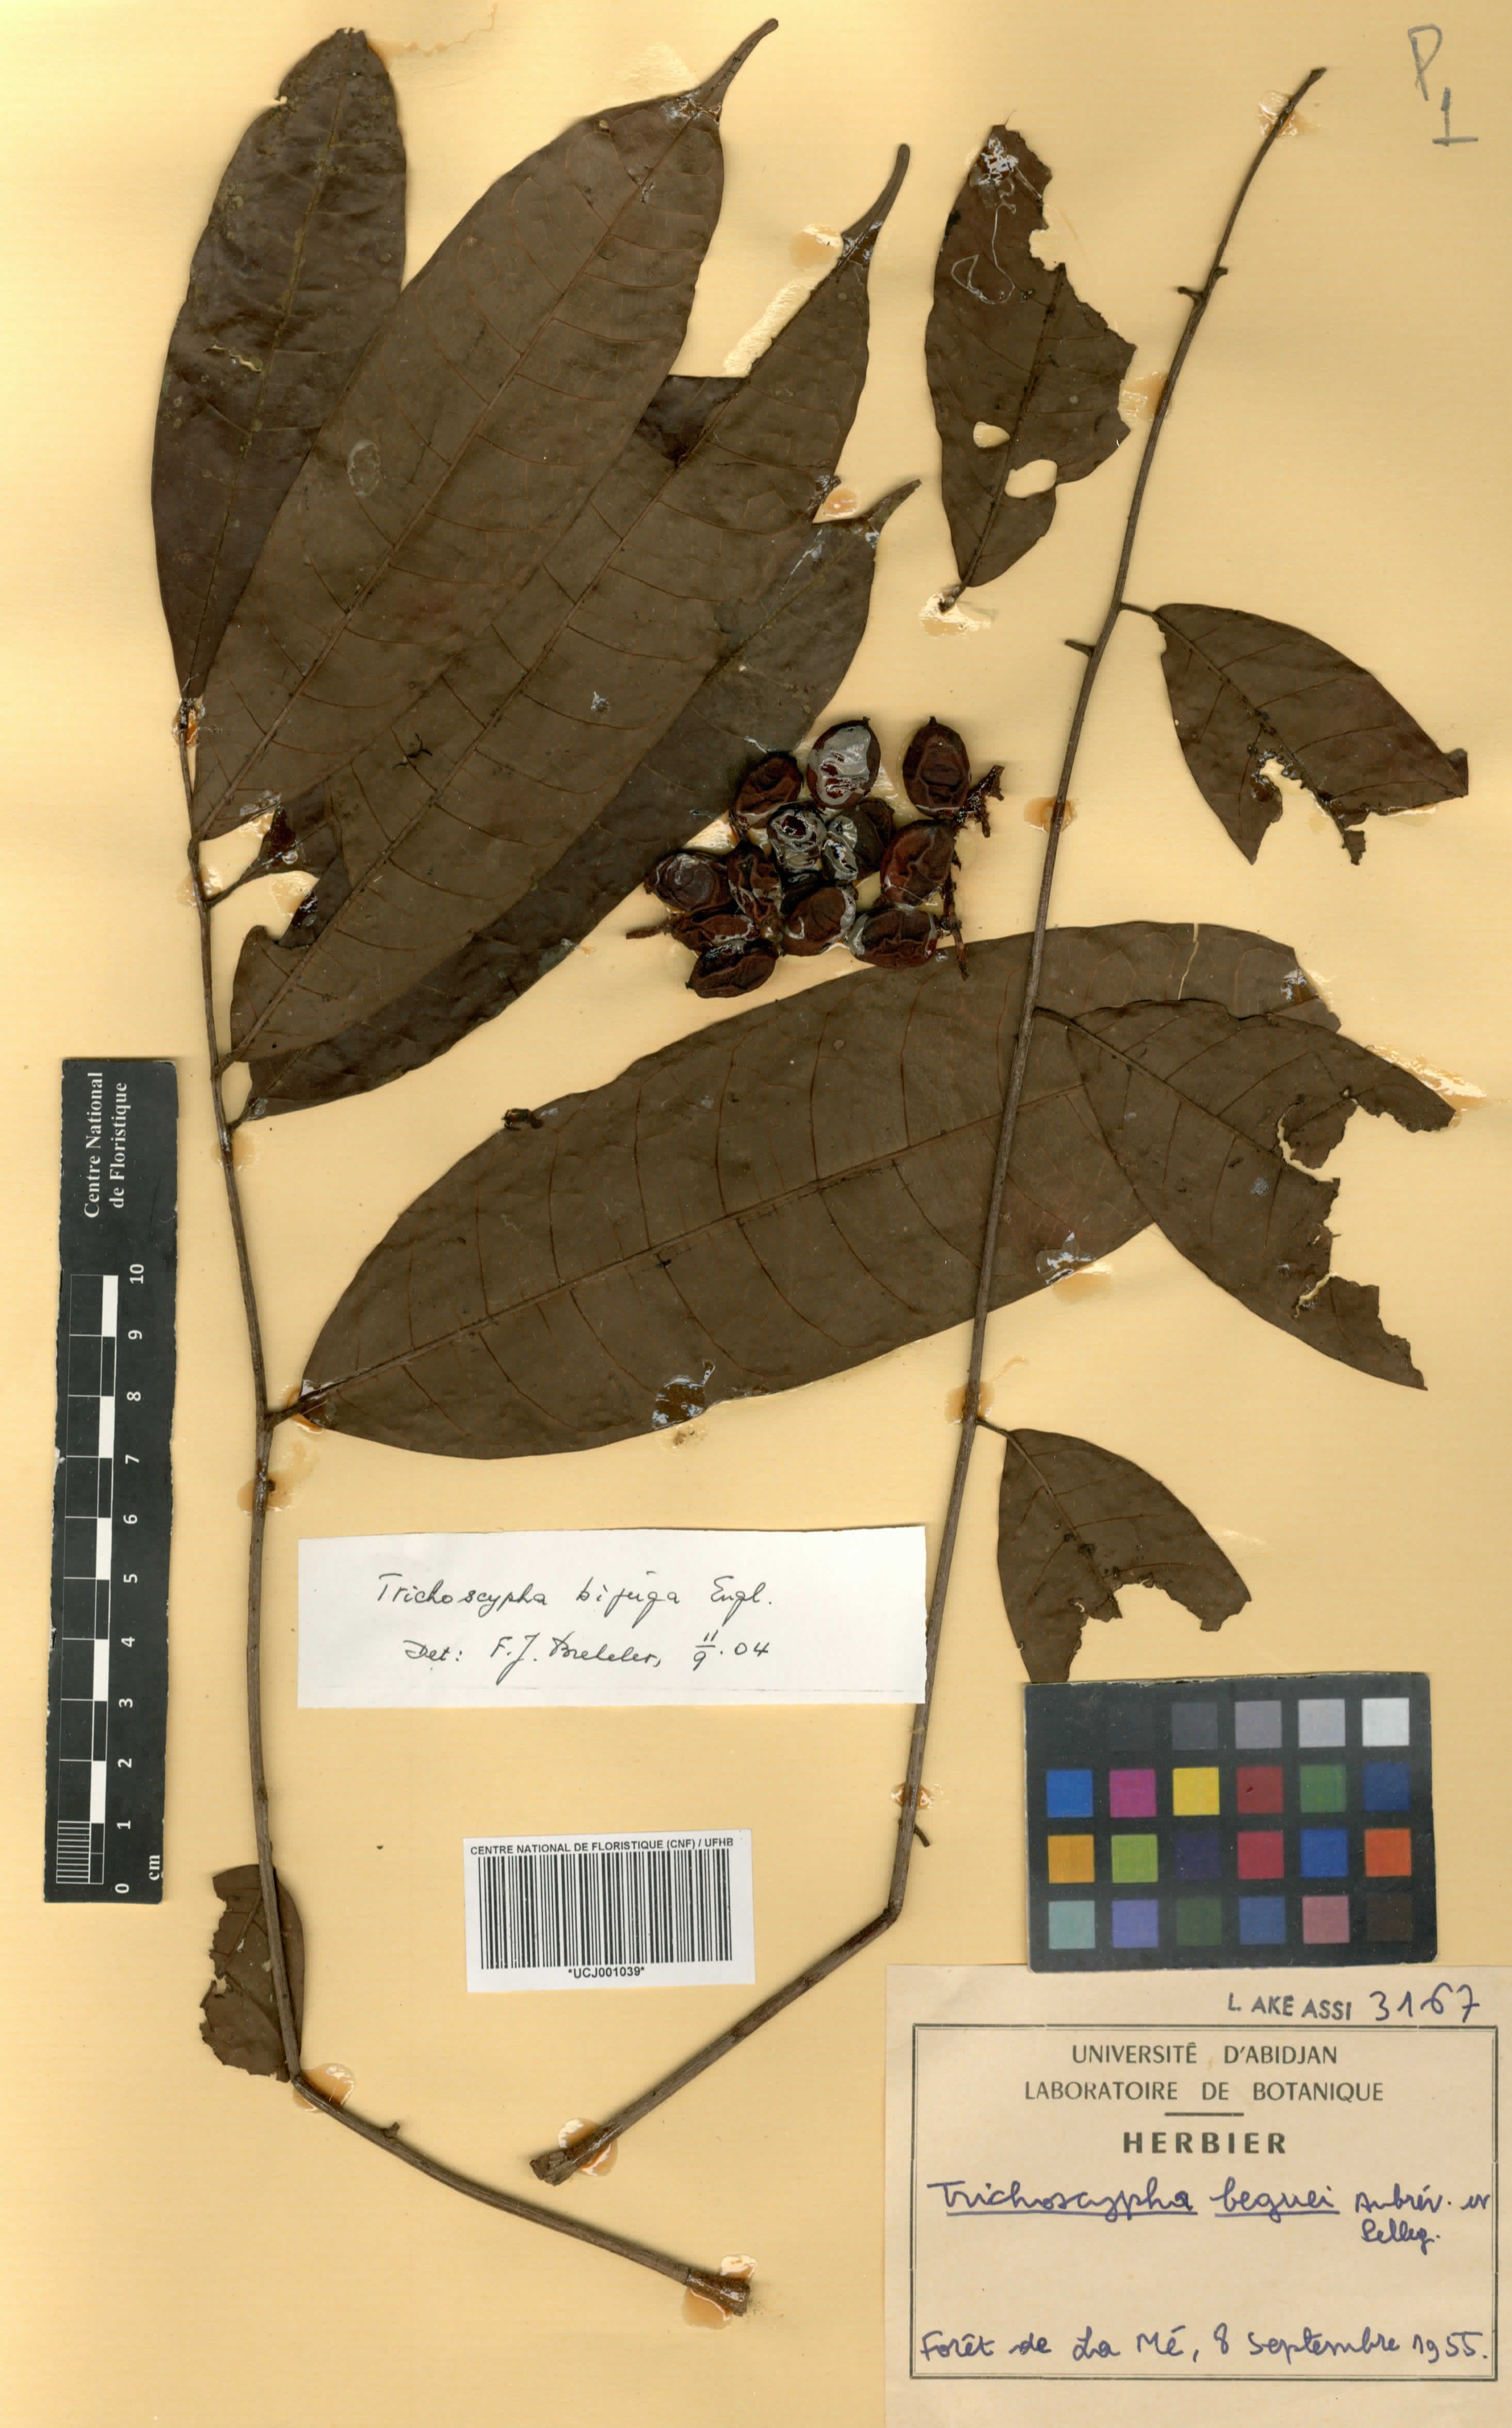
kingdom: Plantae
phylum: Tracheophyta
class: Magnoliopsida
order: Sapindales
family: Anacardiaceae
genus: Trichoscypha
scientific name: Trichoscypha bijuga
